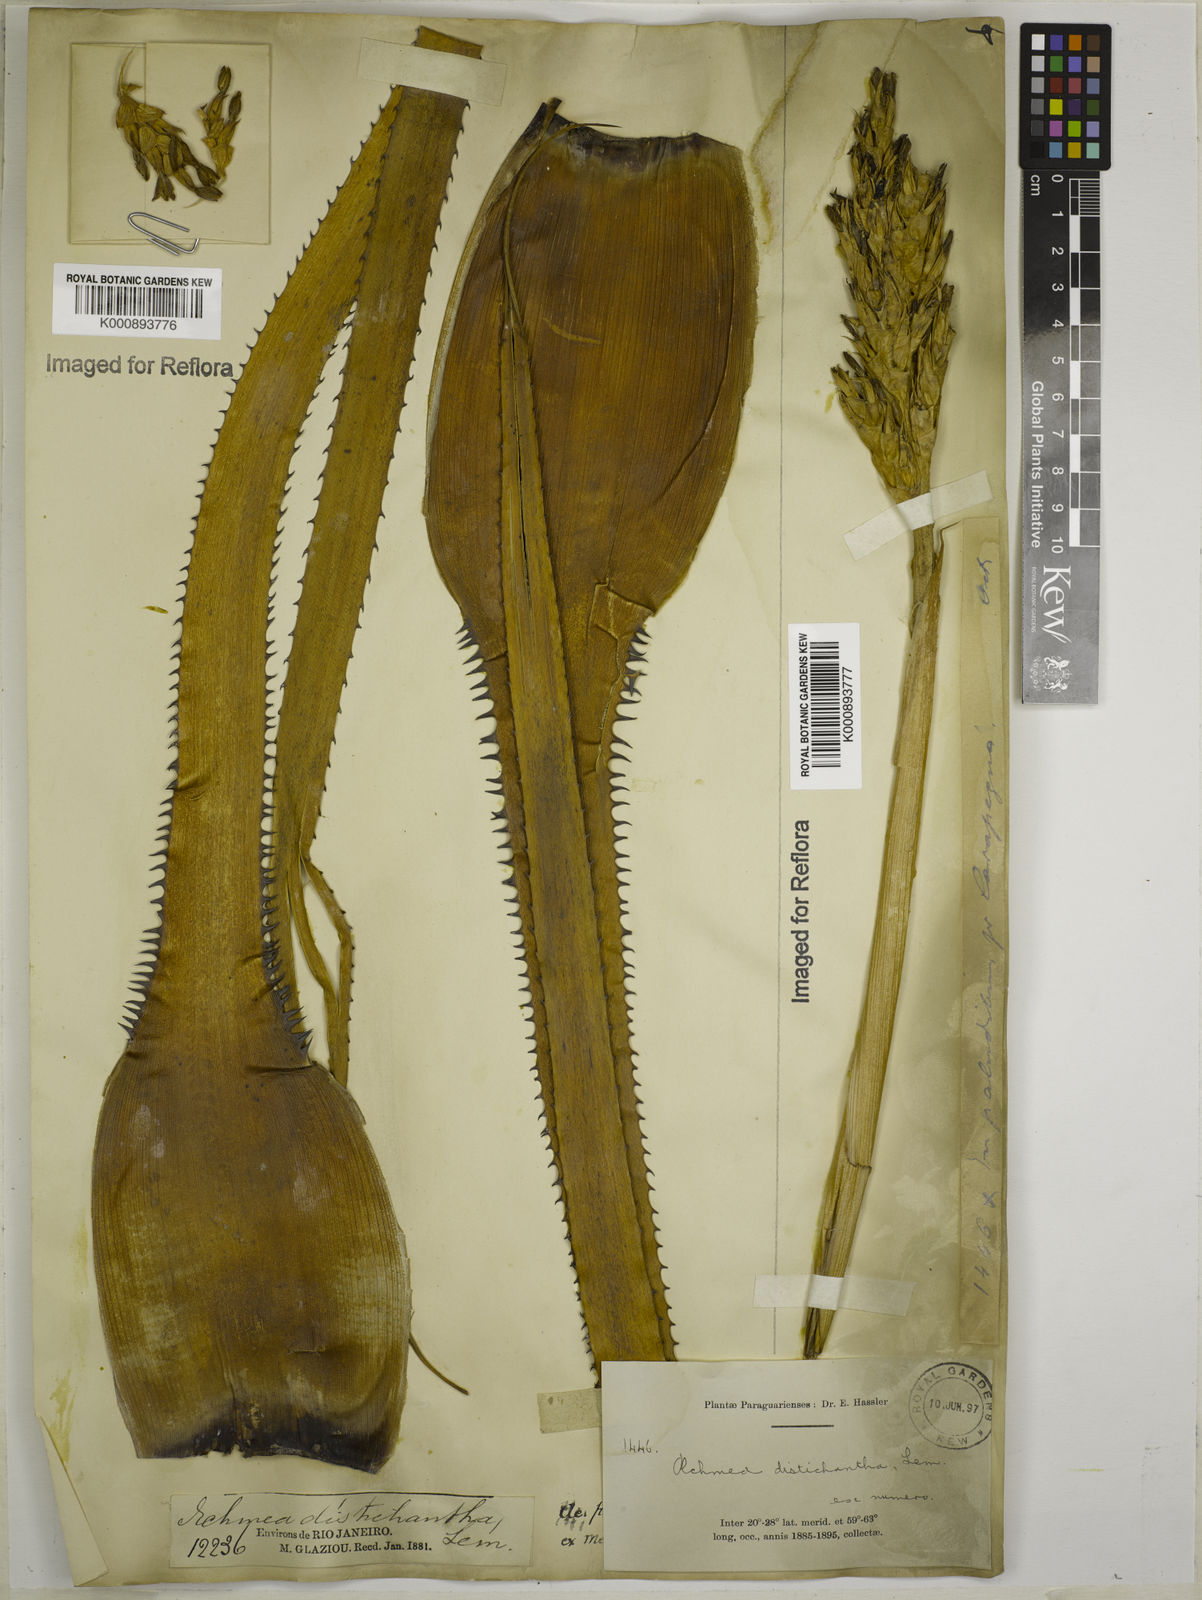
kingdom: Plantae
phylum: Tracheophyta
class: Liliopsida
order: Poales
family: Bromeliaceae
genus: Aechmea
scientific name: Aechmea distichantha
